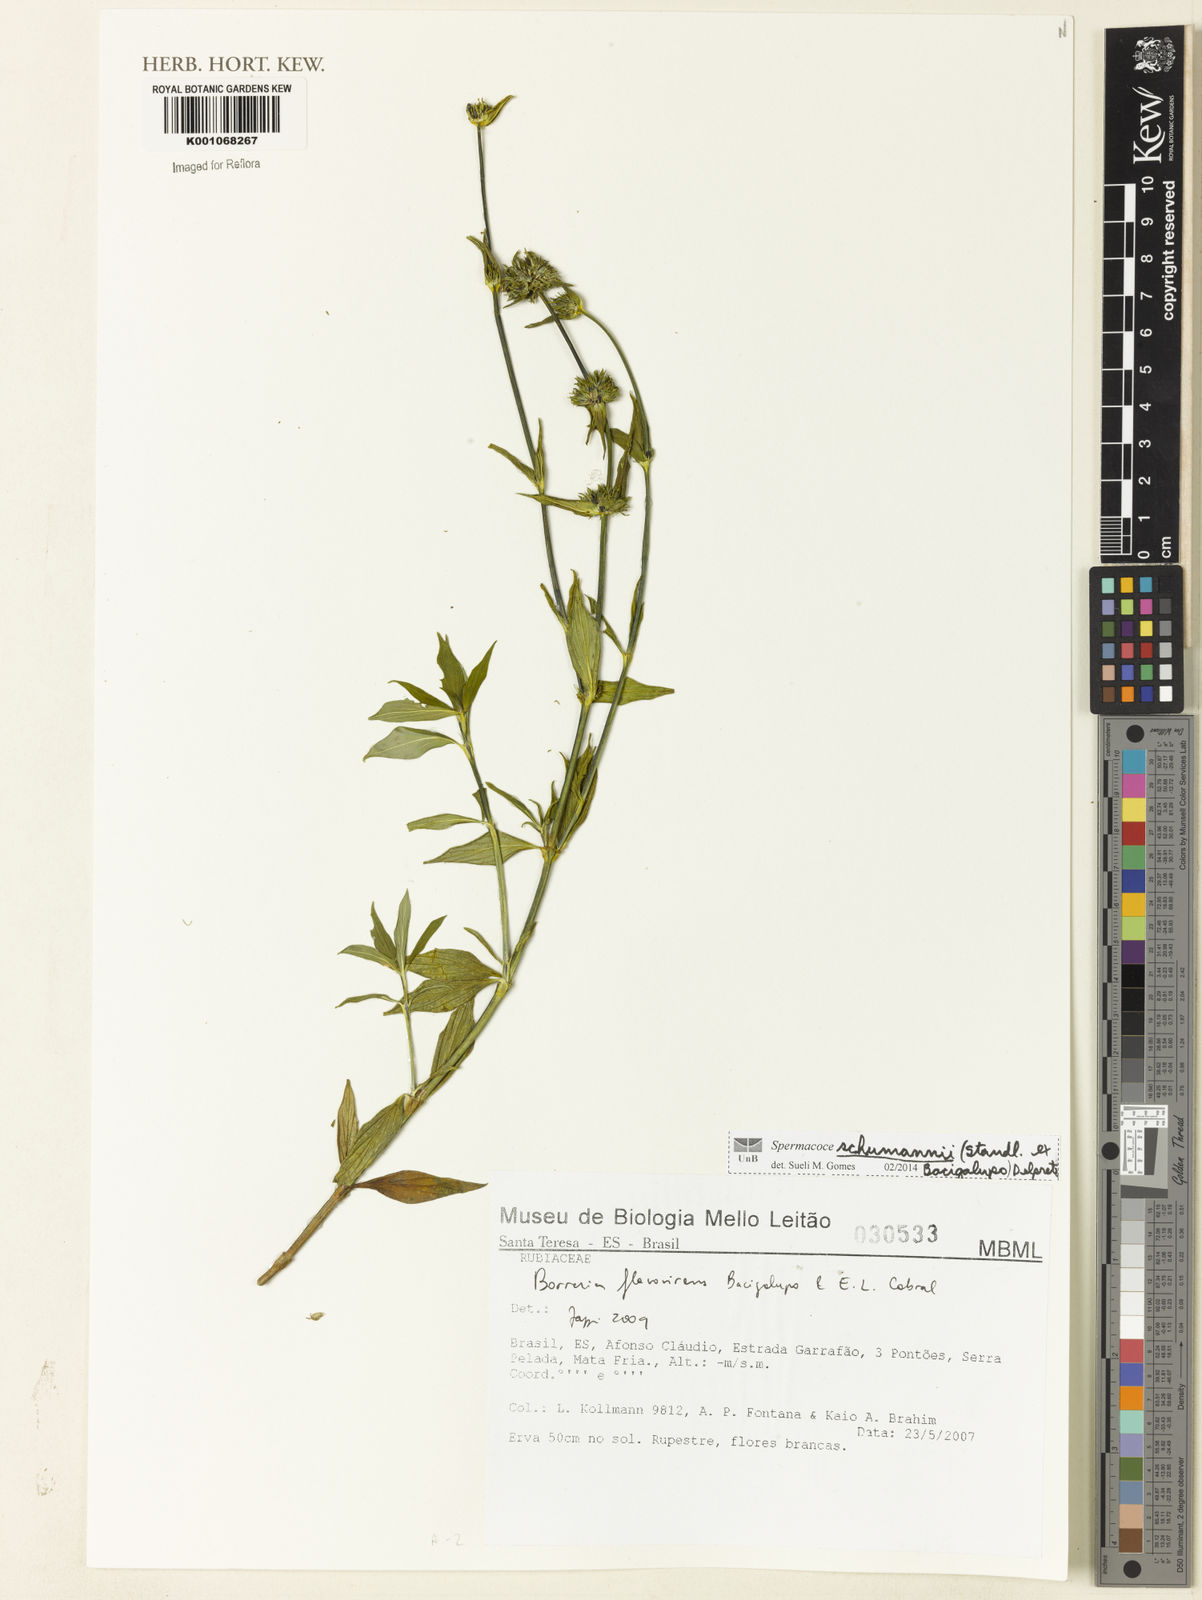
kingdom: Plantae
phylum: Tracheophyta
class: Magnoliopsida
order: Gentianales
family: Rubiaceae
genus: Spermacoce
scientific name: Spermacoce schumannii
